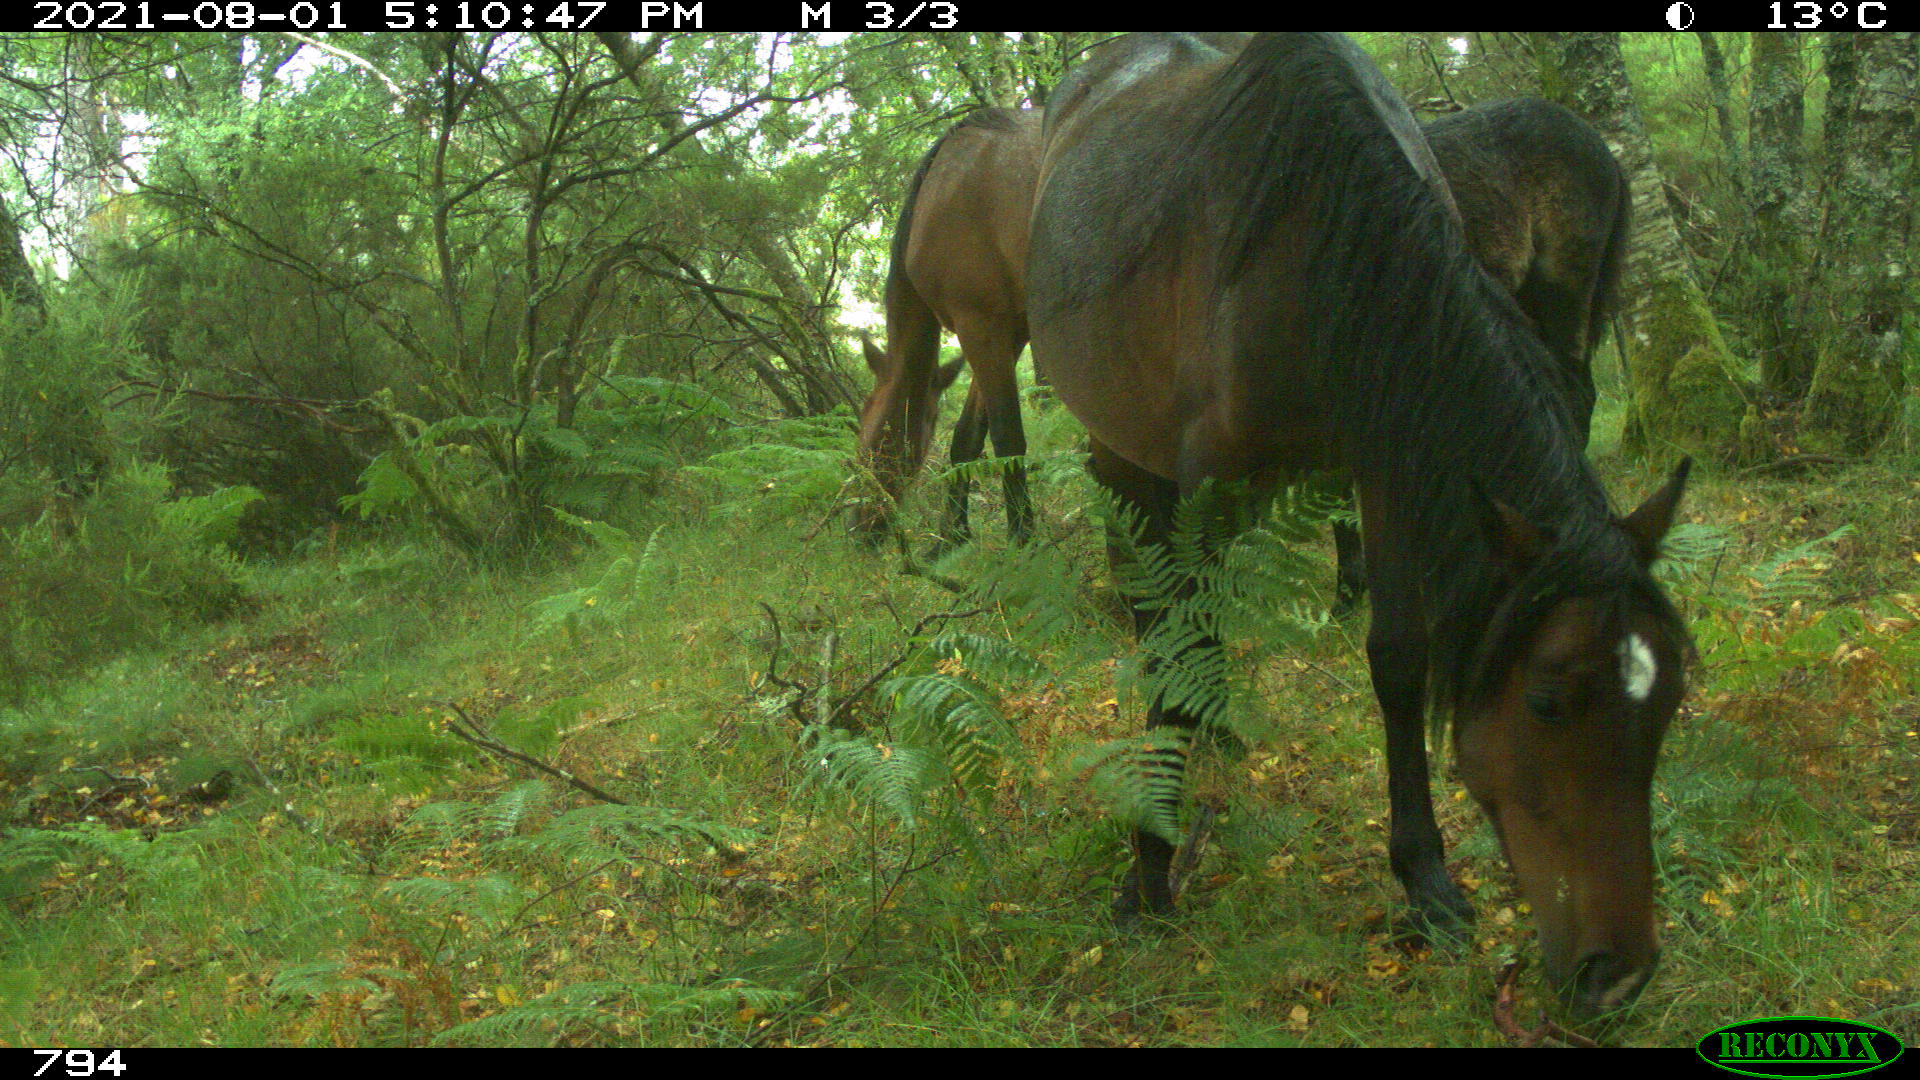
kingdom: Animalia
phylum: Chordata
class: Mammalia
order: Perissodactyla
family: Equidae
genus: Equus
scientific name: Equus caballus
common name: Horse
